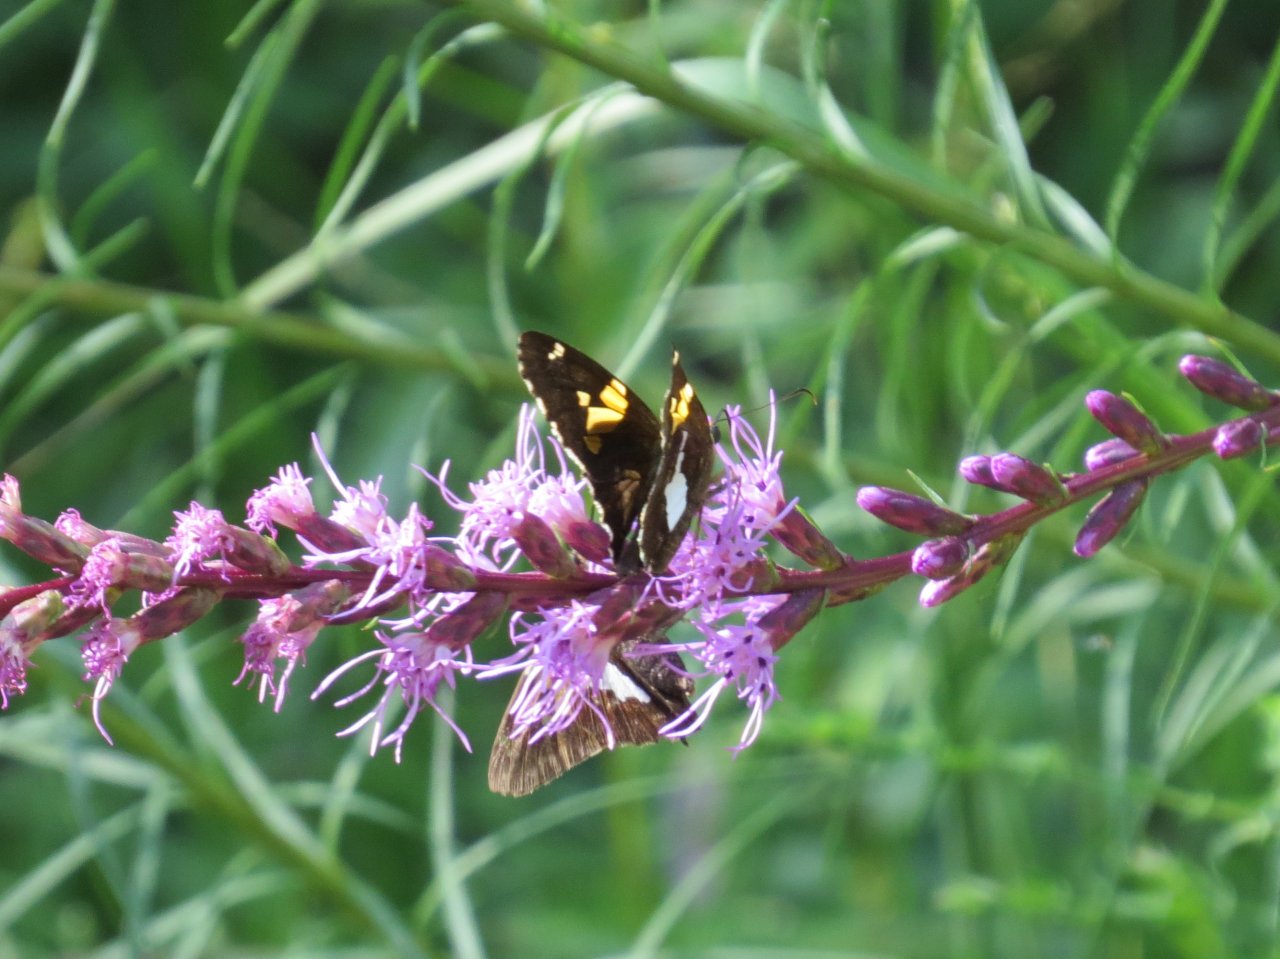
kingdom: Animalia
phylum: Arthropoda
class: Insecta
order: Lepidoptera
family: Hesperiidae
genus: Epargyreus
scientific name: Epargyreus clarus
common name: Silver-spotted Skipper
